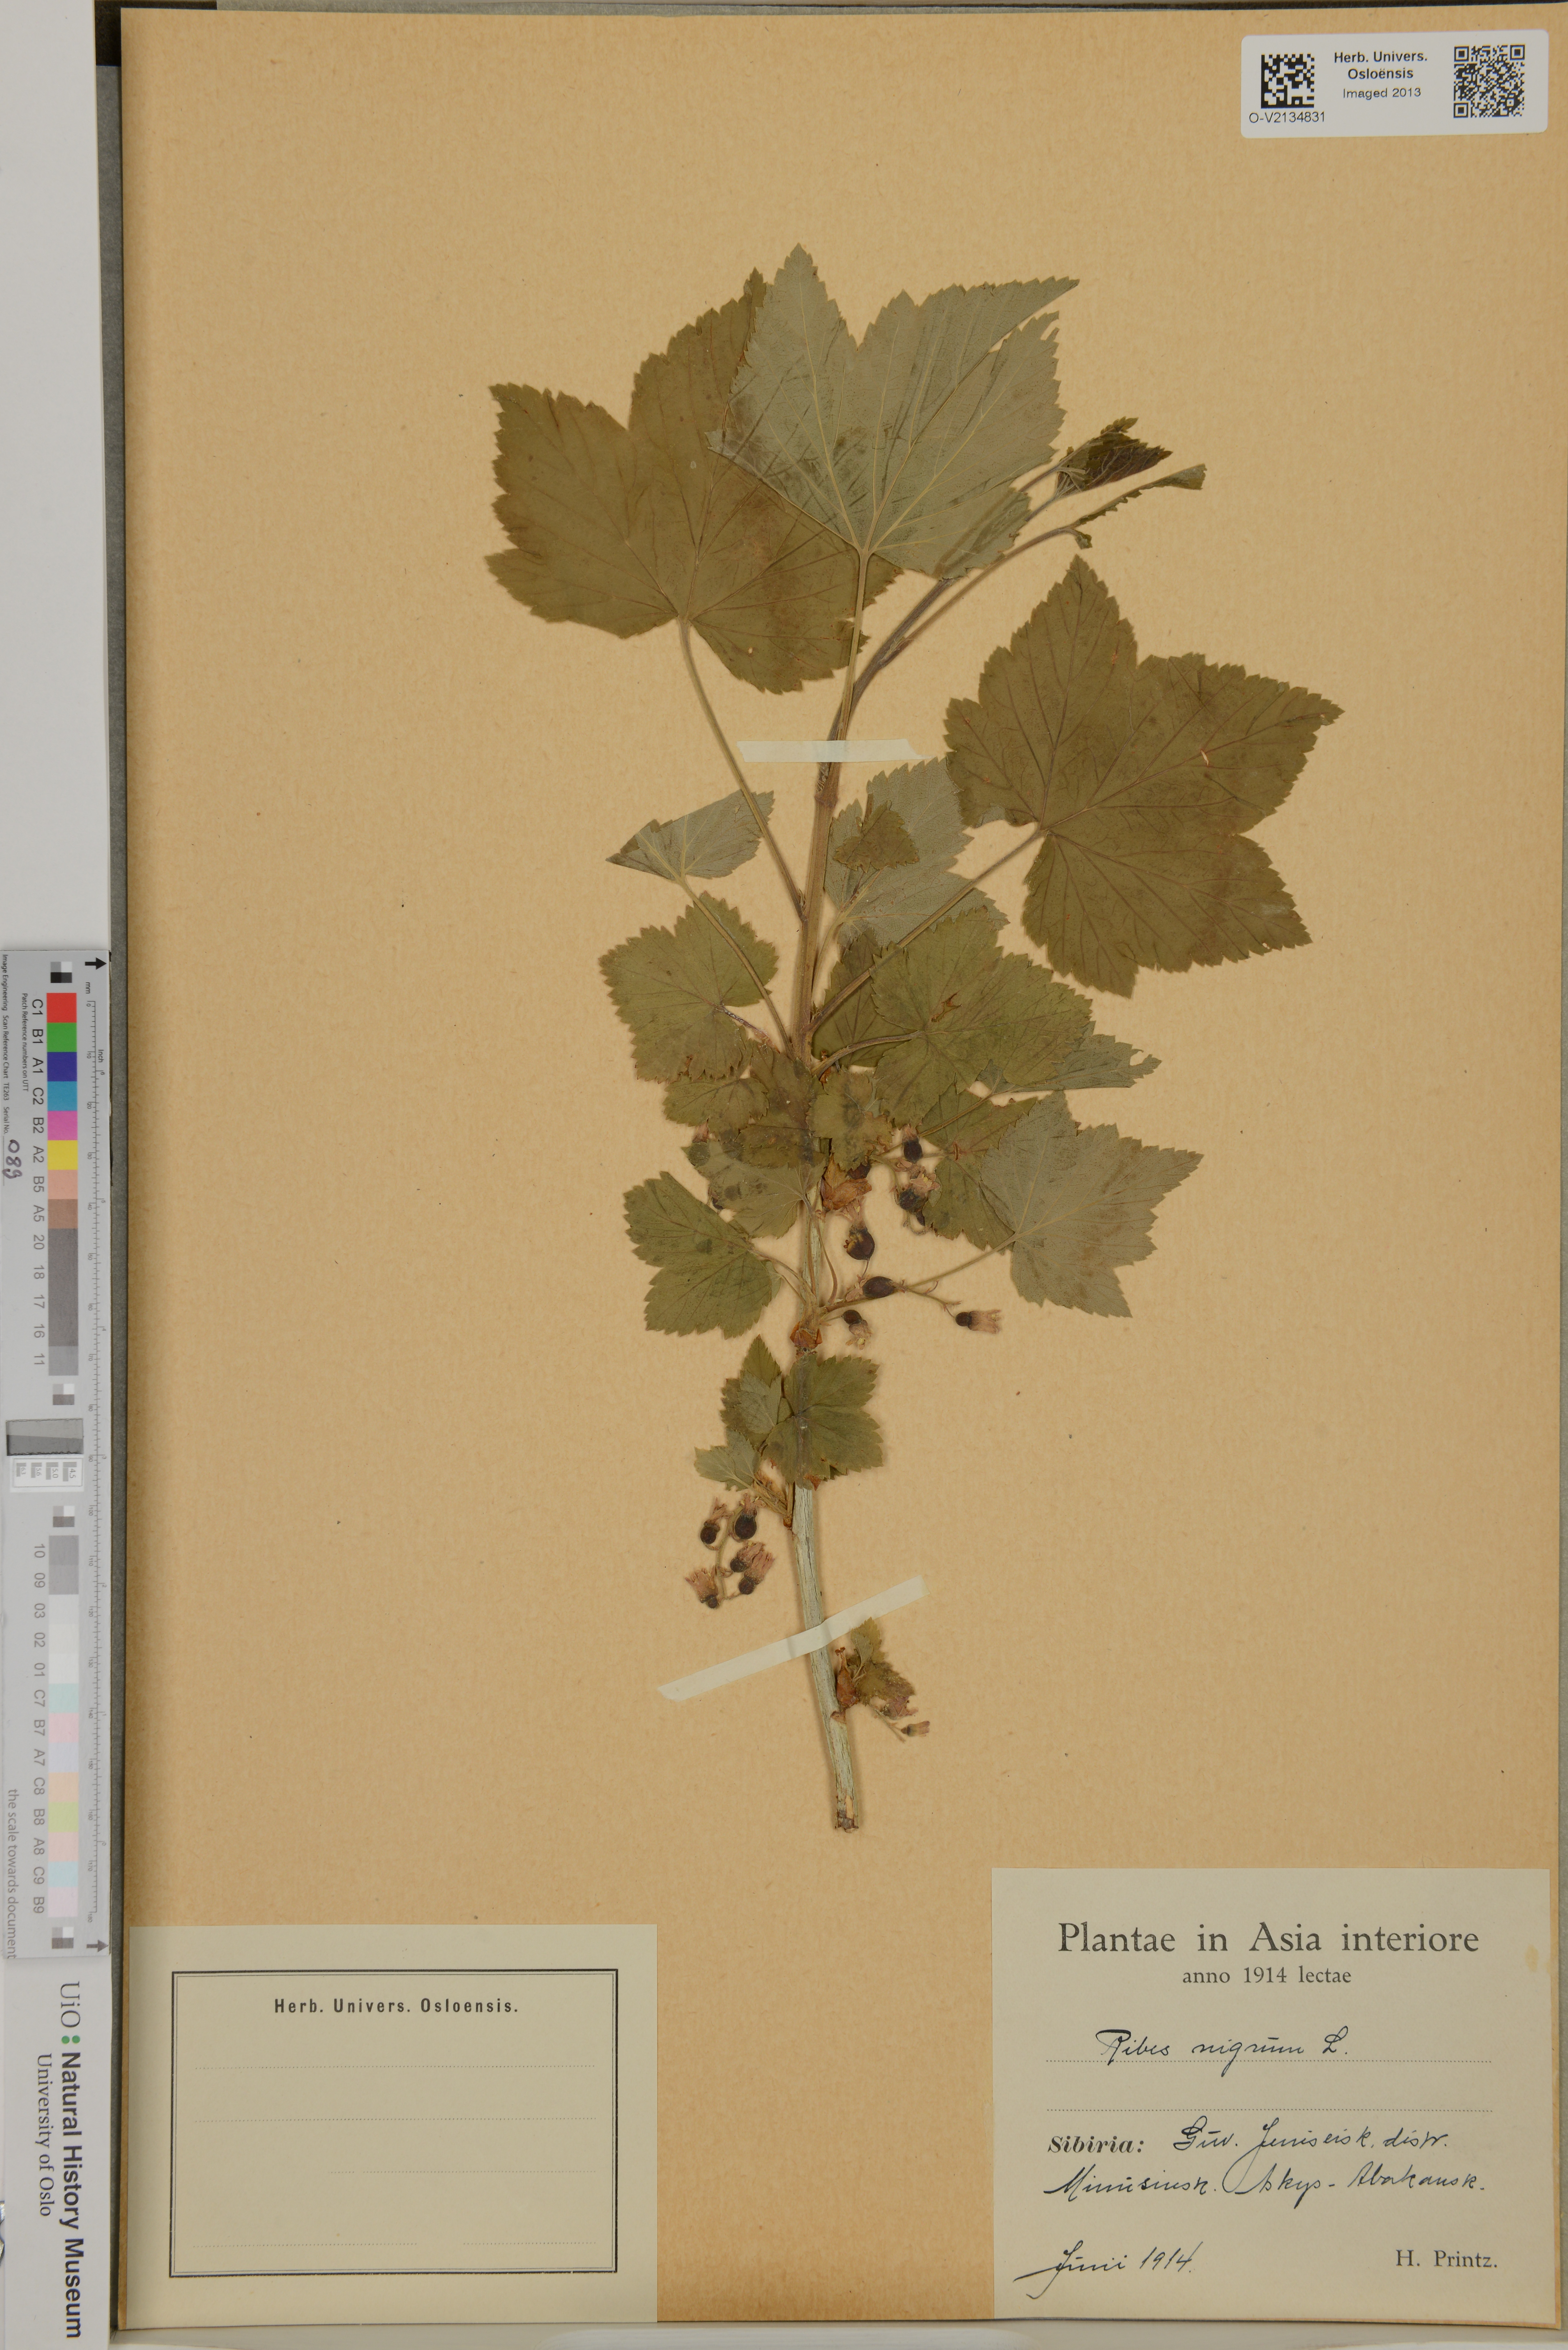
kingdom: Plantae
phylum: Tracheophyta
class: Magnoliopsida
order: Saxifragales
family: Grossulariaceae
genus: Ribes
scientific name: Ribes nigrum
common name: Black currant
